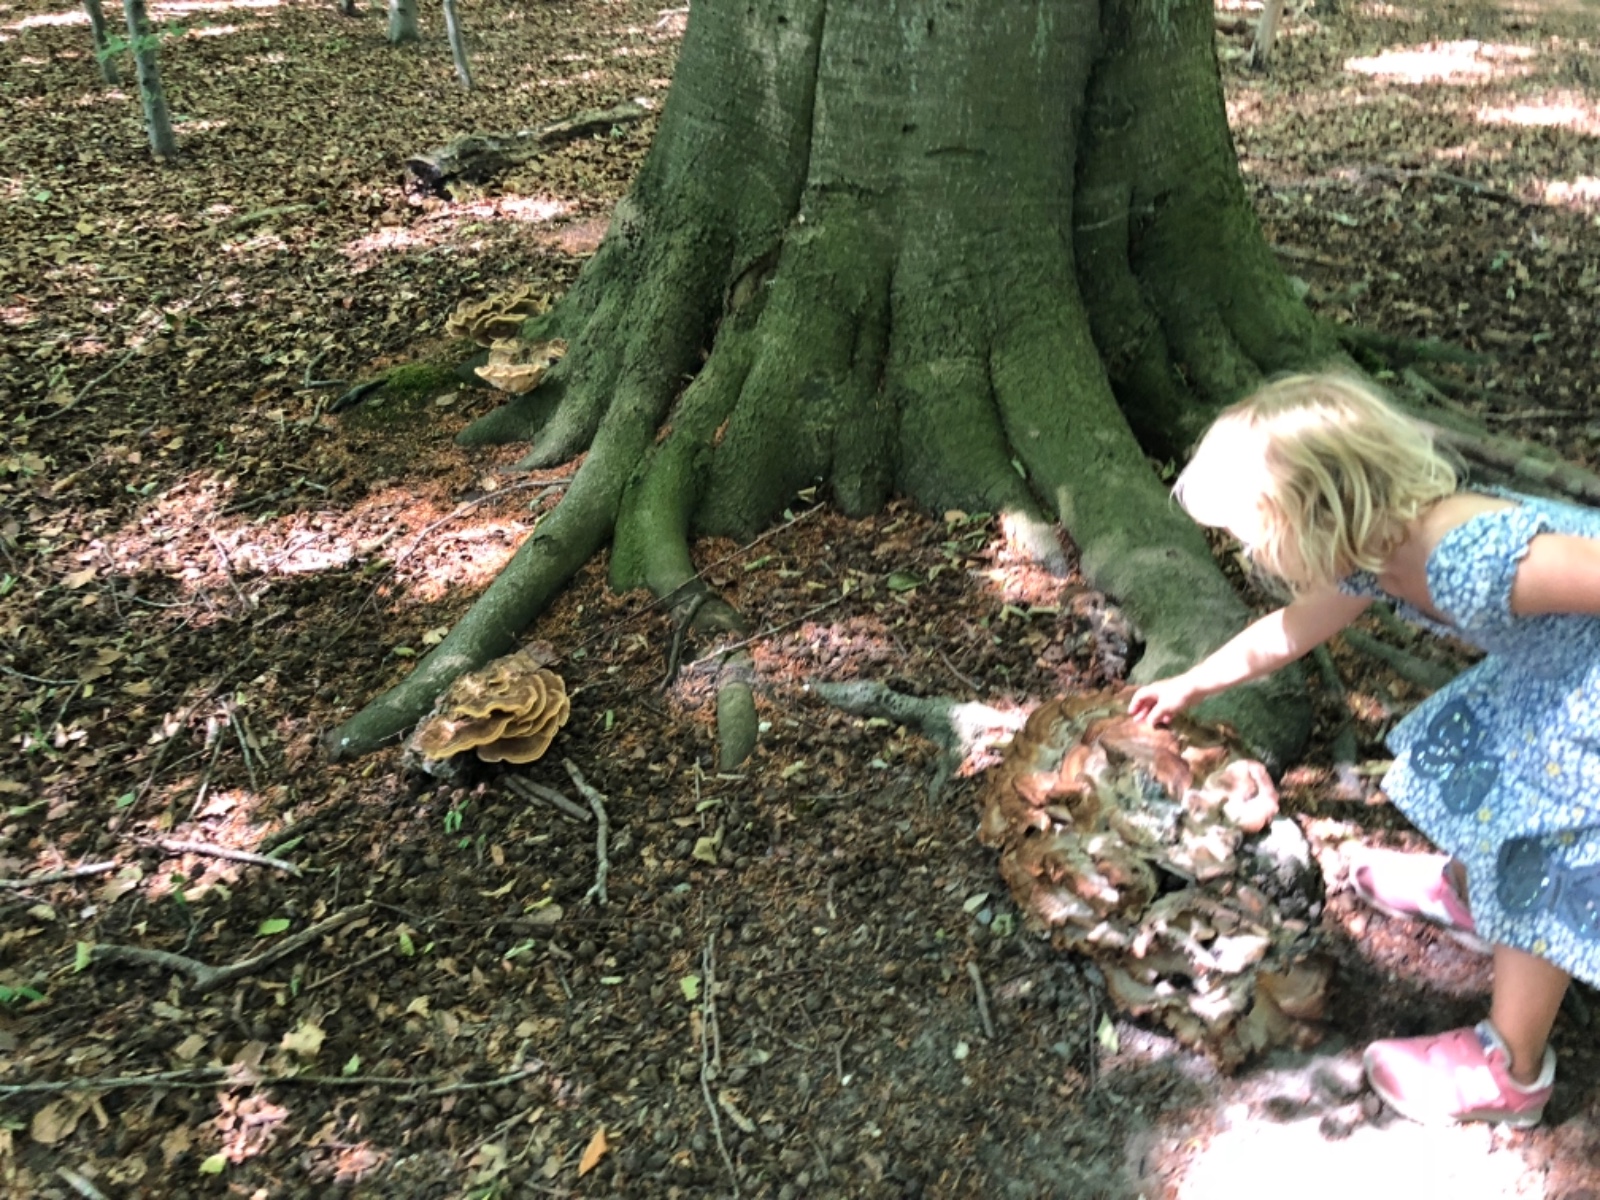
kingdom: Fungi
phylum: Basidiomycota
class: Agaricomycetes
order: Polyporales
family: Meripilaceae
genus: Meripilus
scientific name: Meripilus giganteus
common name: kæmpeporesvamp
